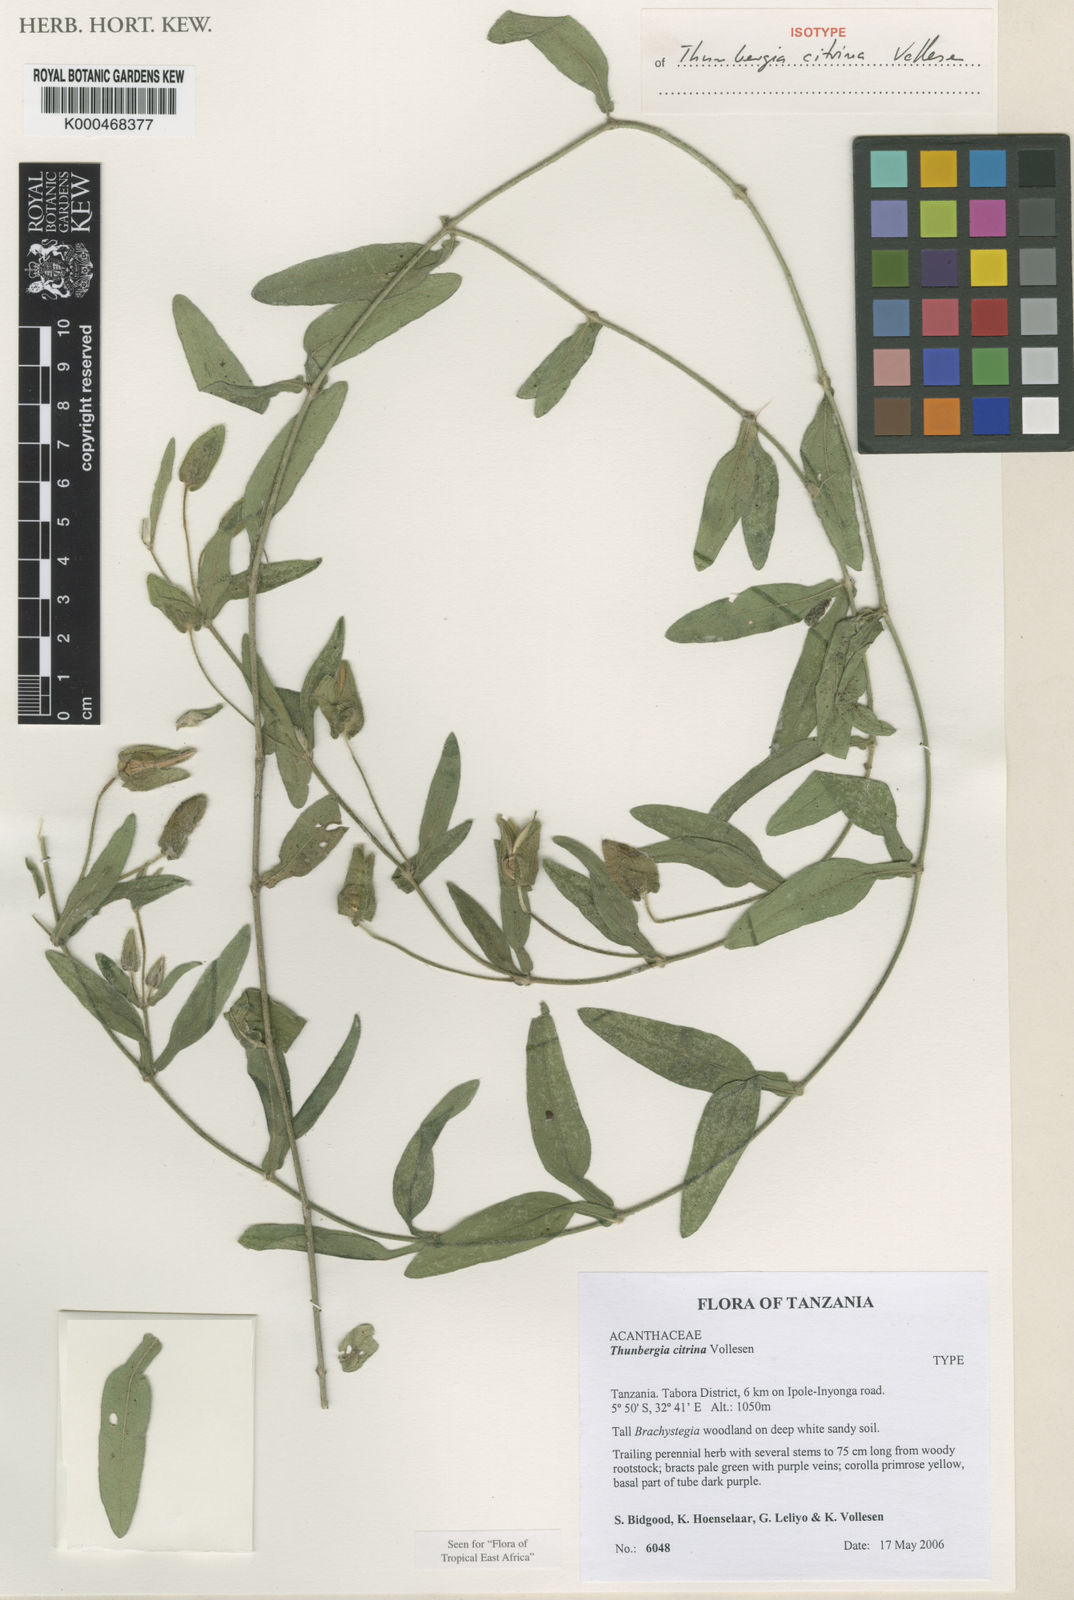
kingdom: Plantae
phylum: Tracheophyta
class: Magnoliopsida
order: Lamiales
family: Acanthaceae
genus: Thunbergia
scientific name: Thunbergia citrina
